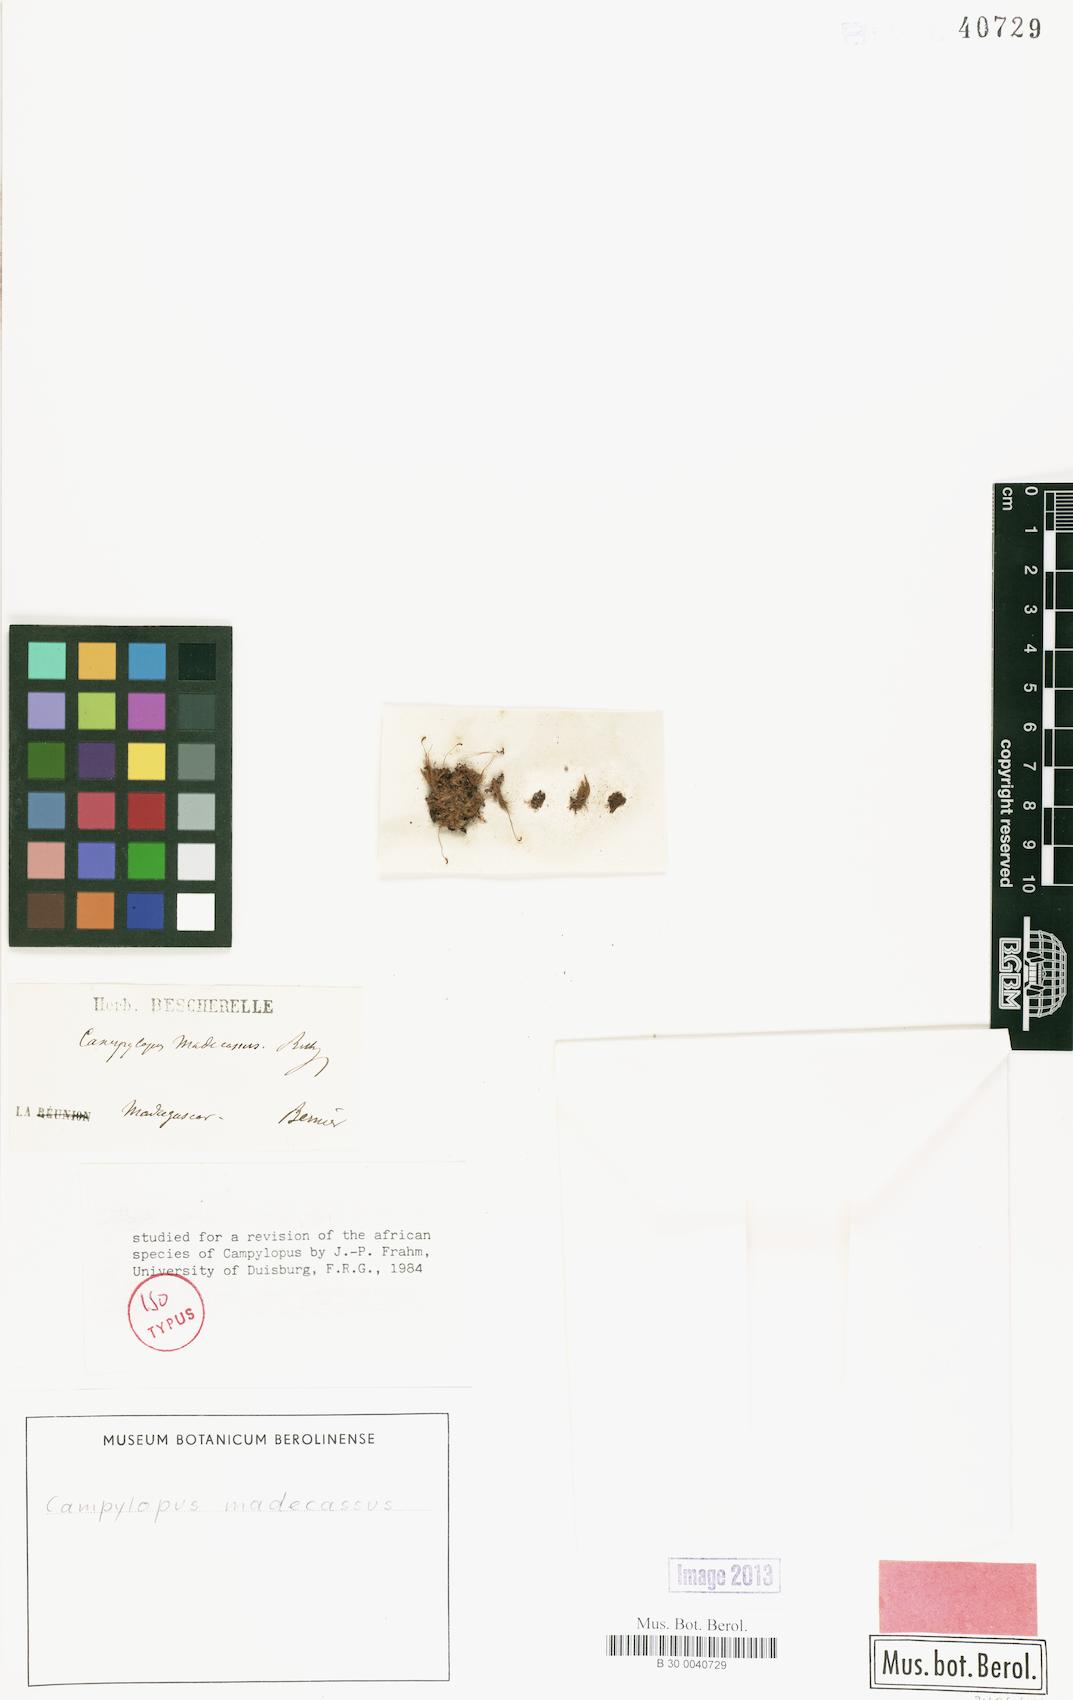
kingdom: Plantae
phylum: Bryophyta
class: Bryopsida
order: Dicranales
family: Leucobryaceae
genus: Campylopus
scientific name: Campylopus arctocarpus
